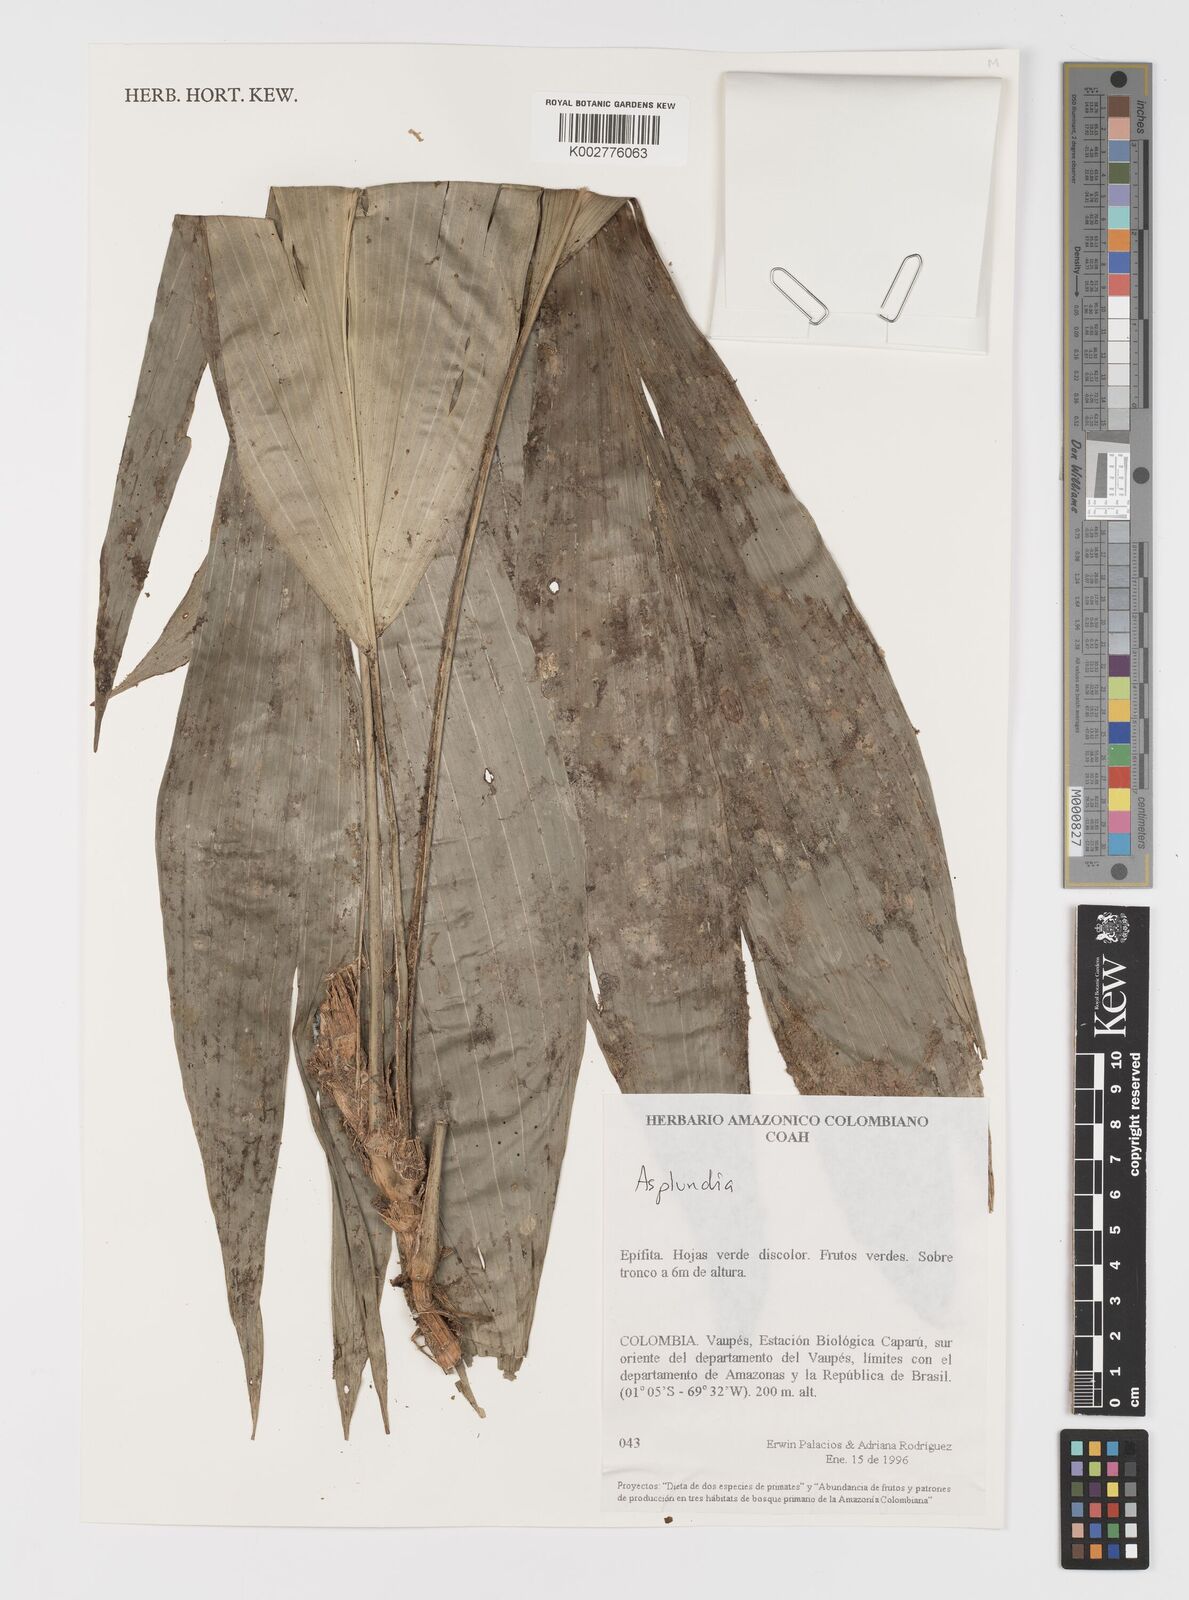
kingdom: Plantae
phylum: Tracheophyta
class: Liliopsida
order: Pandanales
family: Cyclanthaceae
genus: Asplundia
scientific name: Asplundia
